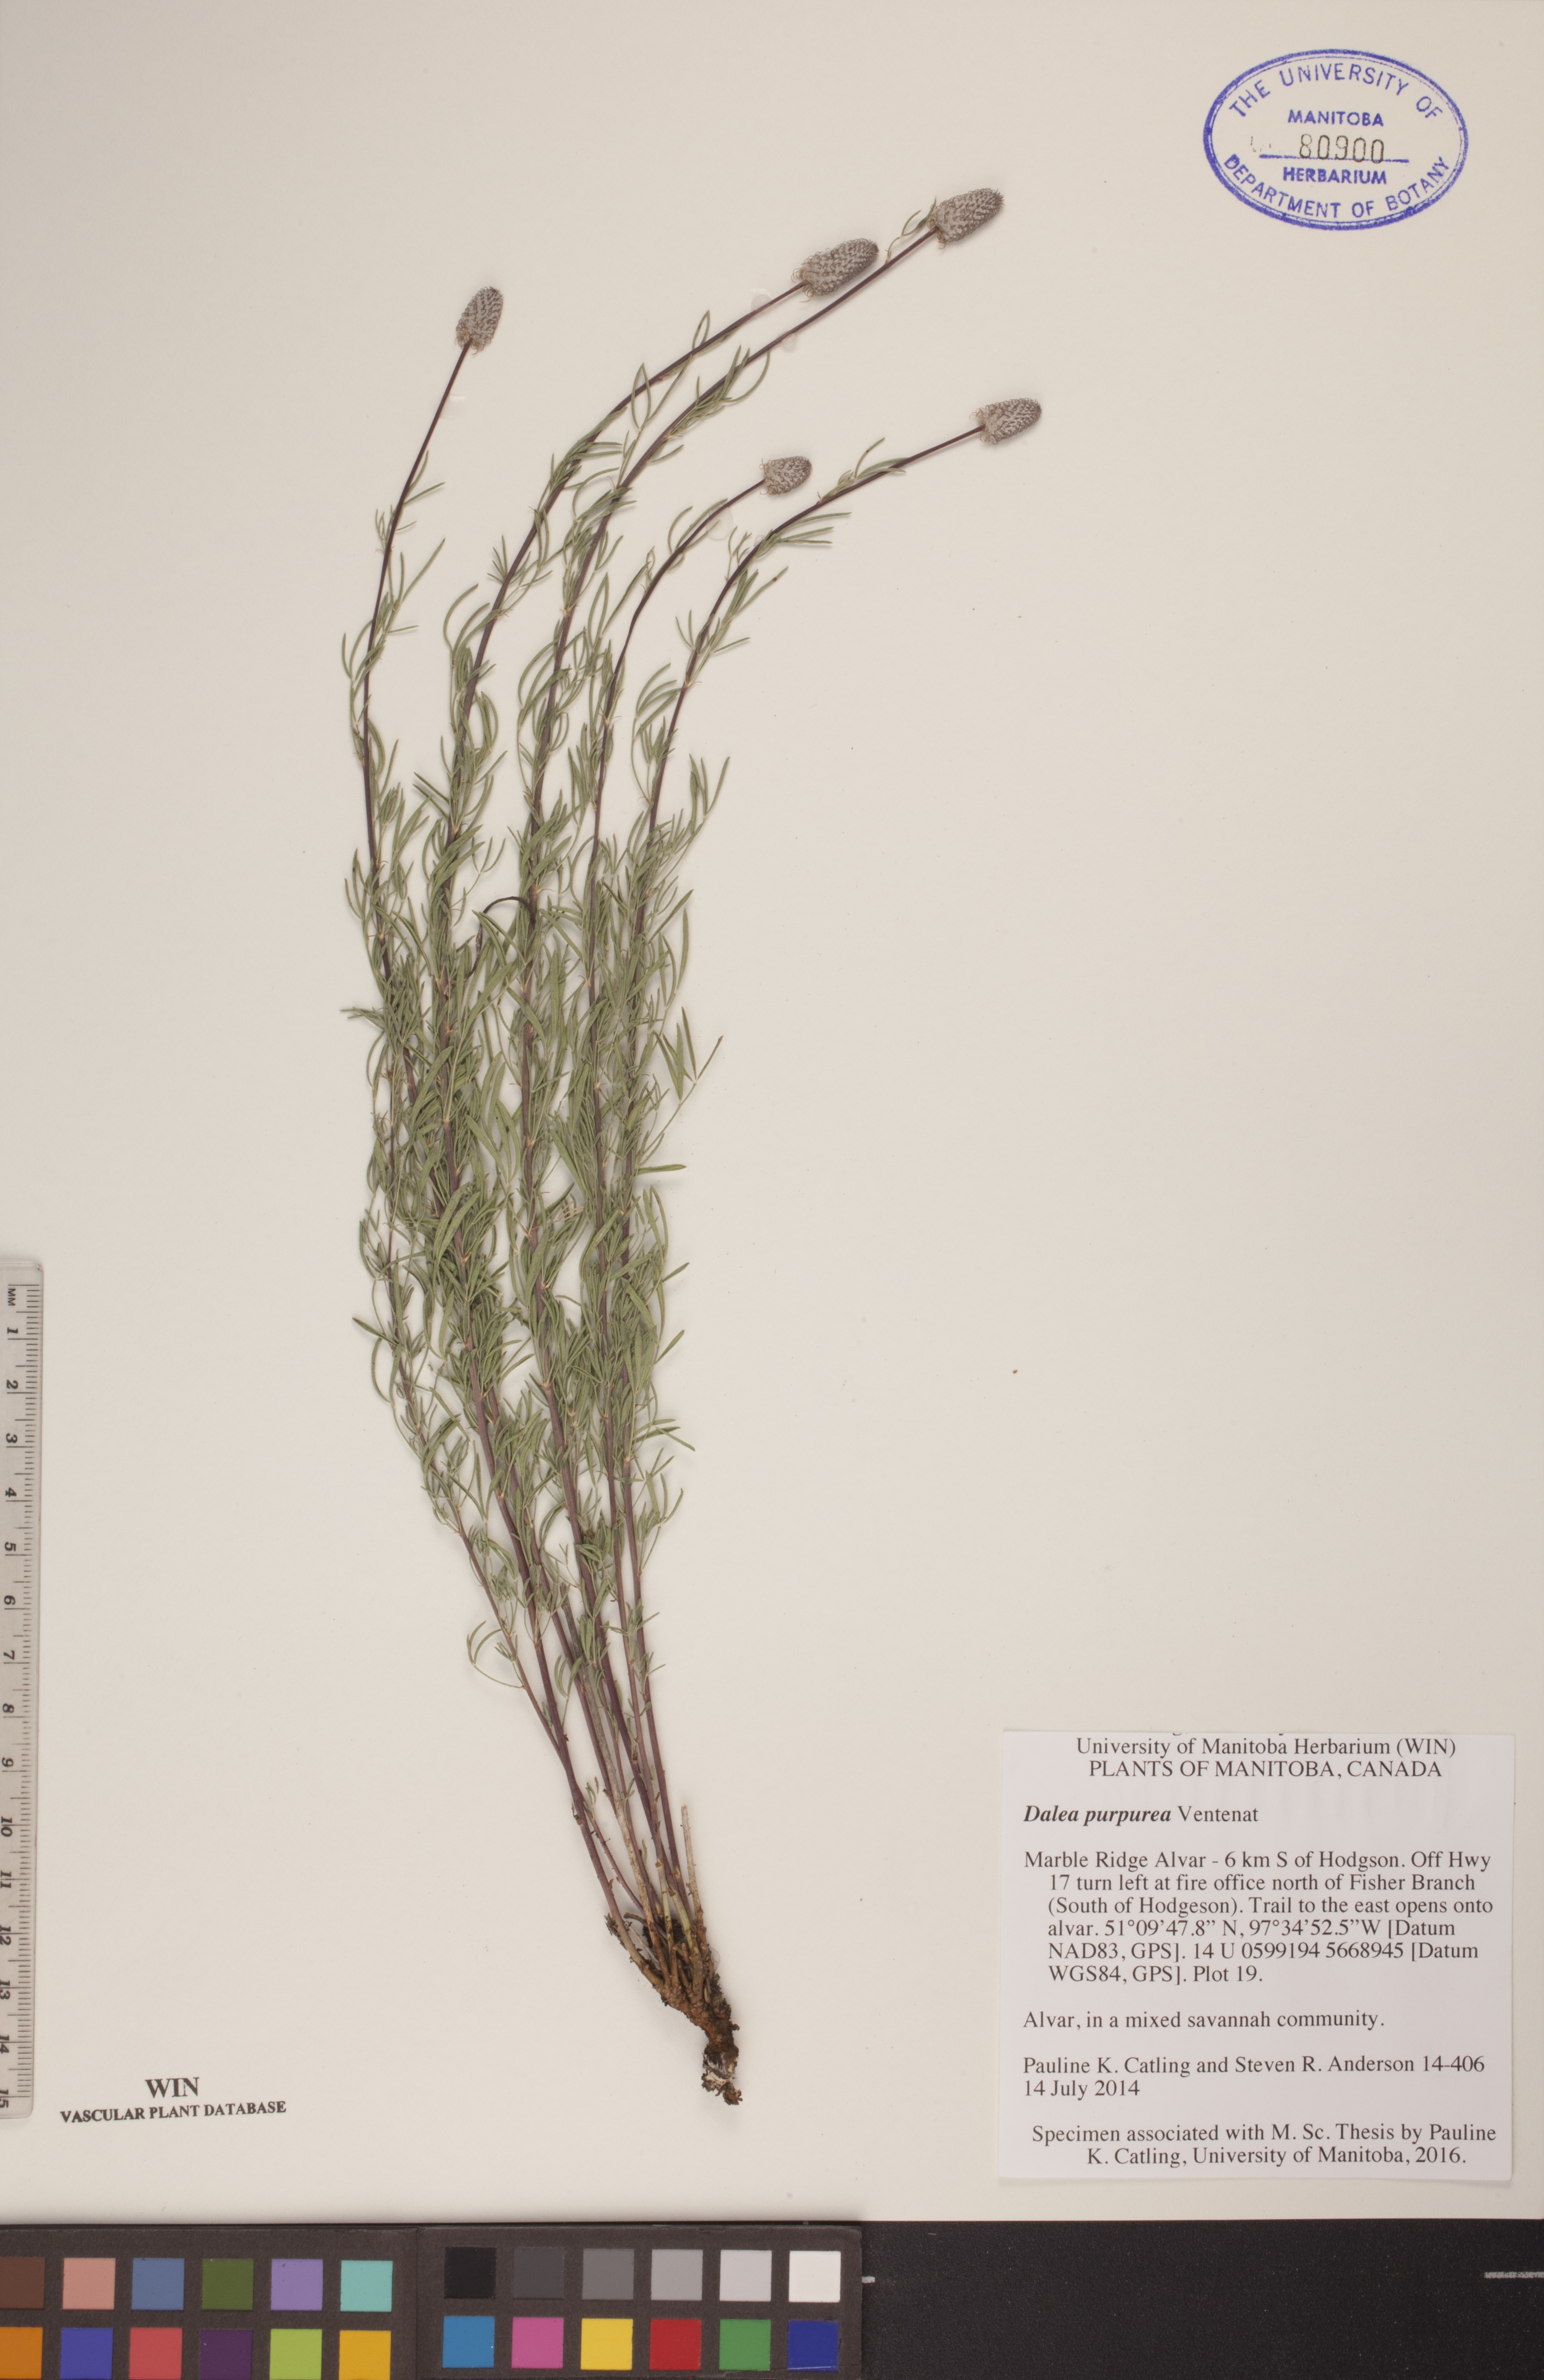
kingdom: Plantae
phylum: Tracheophyta
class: Magnoliopsida
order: Fabales
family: Fabaceae
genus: Dalea
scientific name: Dalea purpurea
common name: Purple prairie-clover
